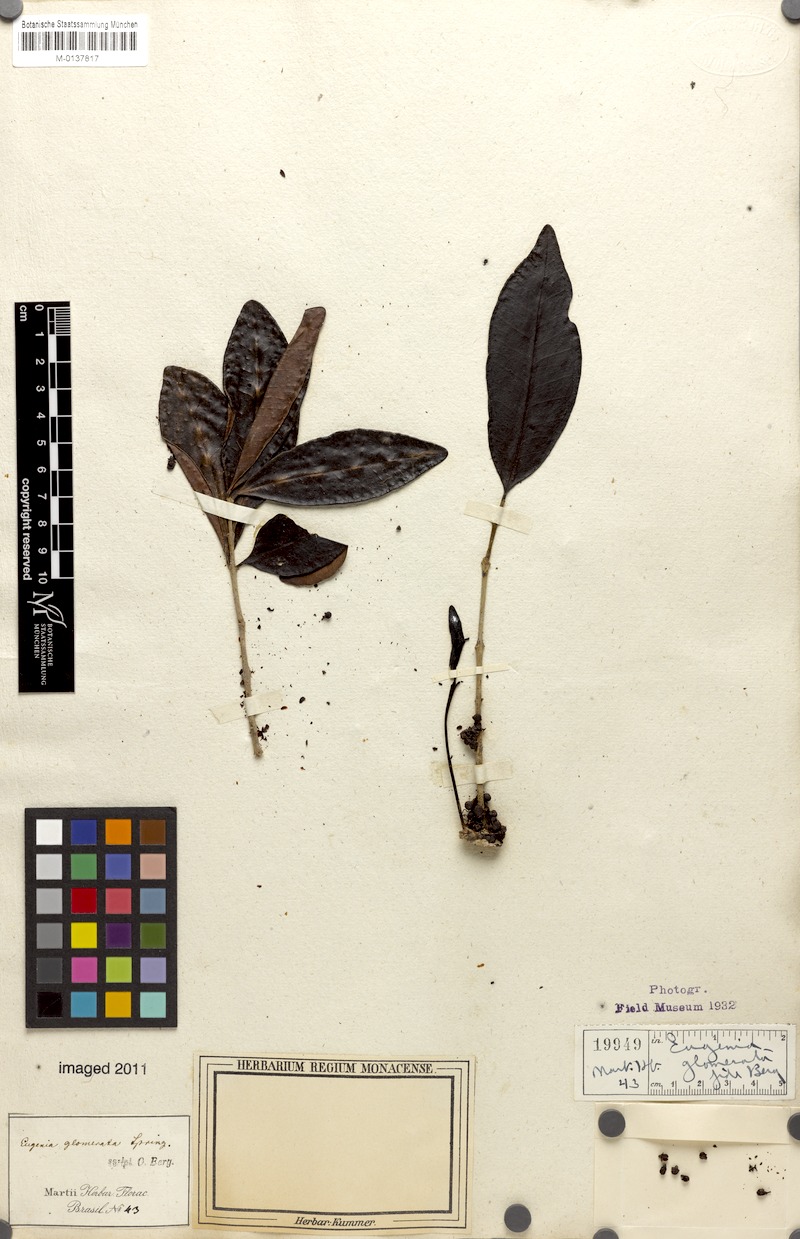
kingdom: Plantae
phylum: Tracheophyta
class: Magnoliopsida
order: Myrtales
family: Myrtaceae
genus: Eugenia
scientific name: Eugenia neoglomerata
